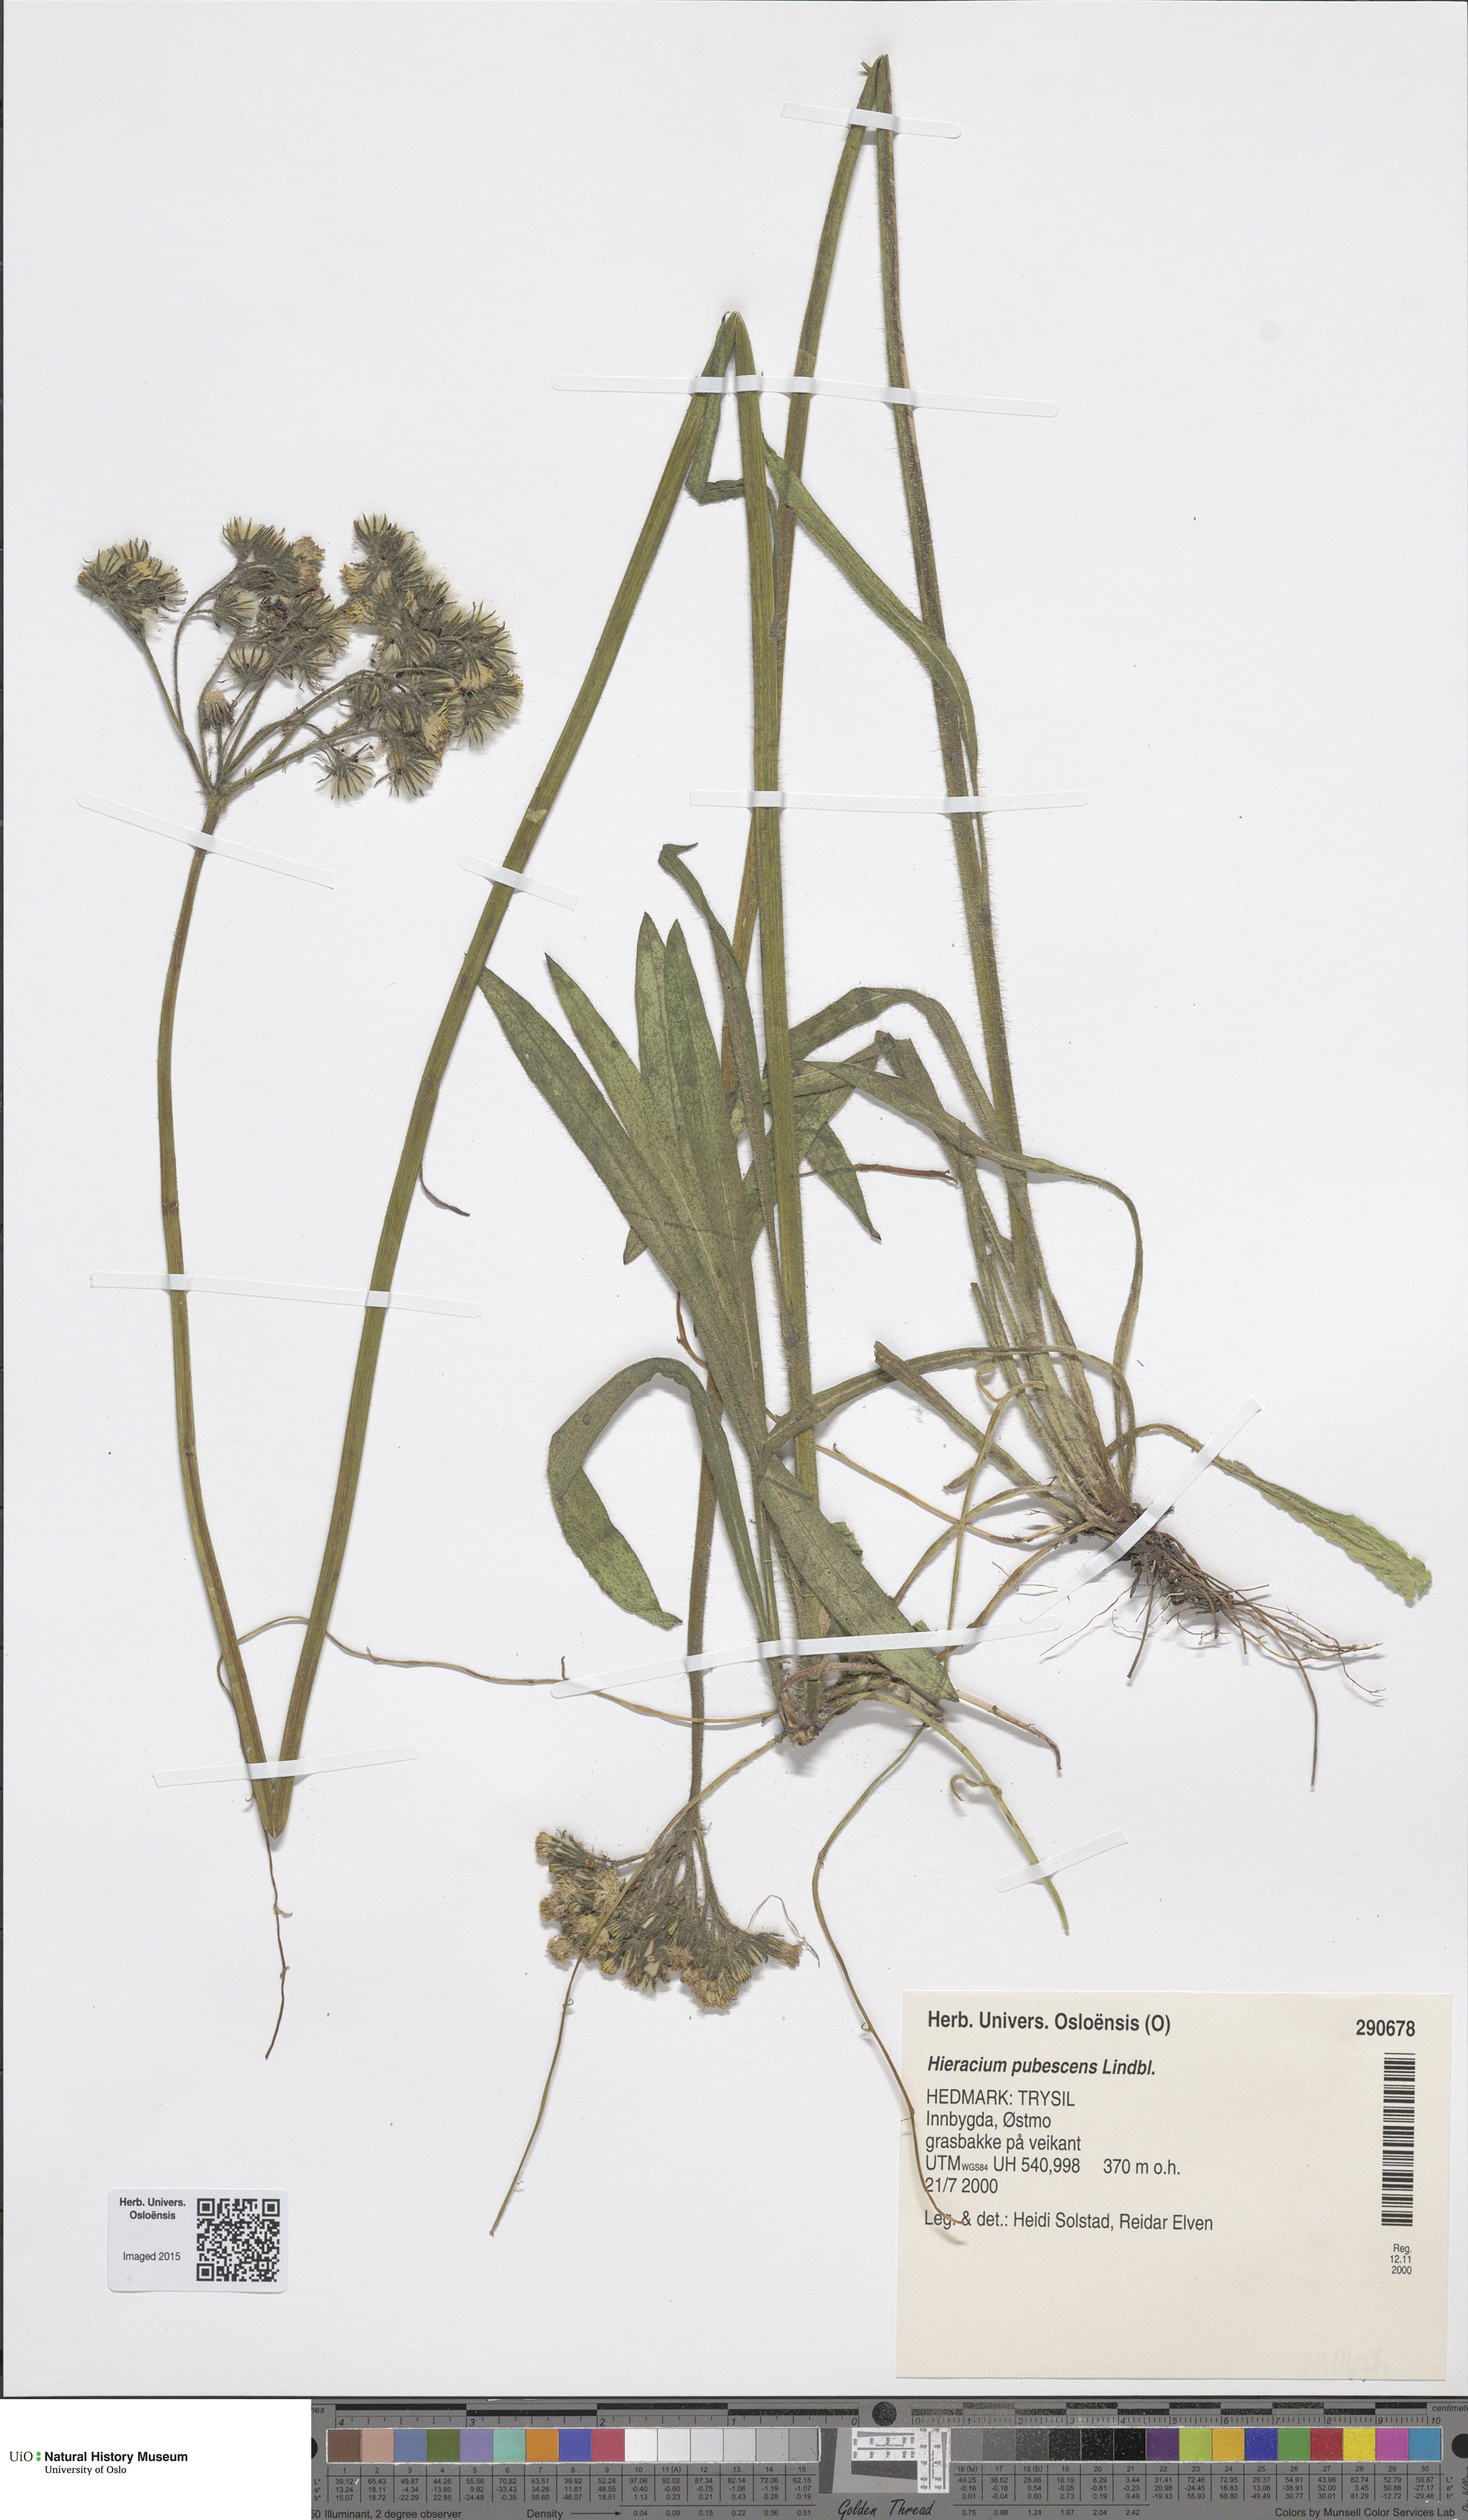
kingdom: Plantae
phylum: Tracheophyta
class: Magnoliopsida
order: Asterales
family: Asteraceae
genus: Pilosella
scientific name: Pilosella cymosa
